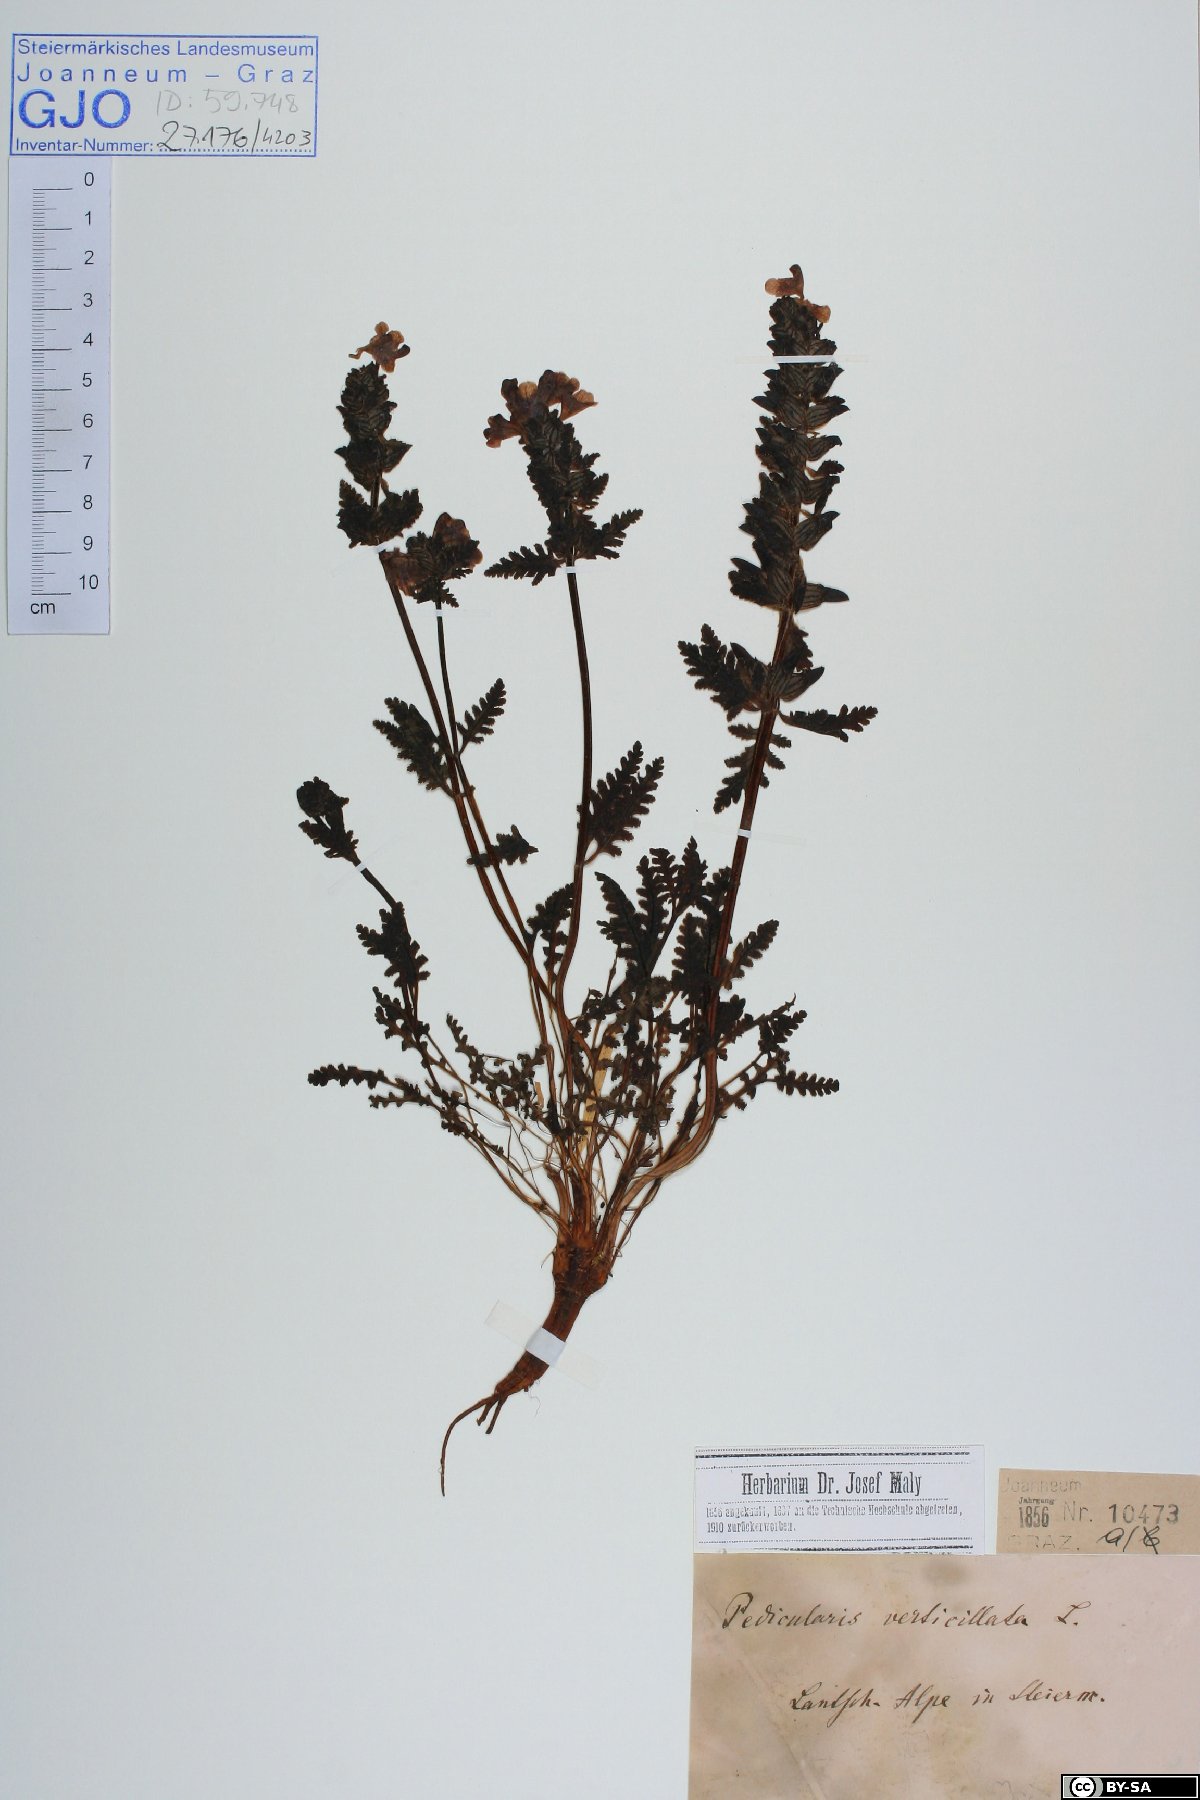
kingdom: Plantae
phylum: Tracheophyta
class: Magnoliopsida
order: Lamiales
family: Orobanchaceae
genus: Pedicularis
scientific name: Pedicularis verticillata
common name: Whorled lousewort
